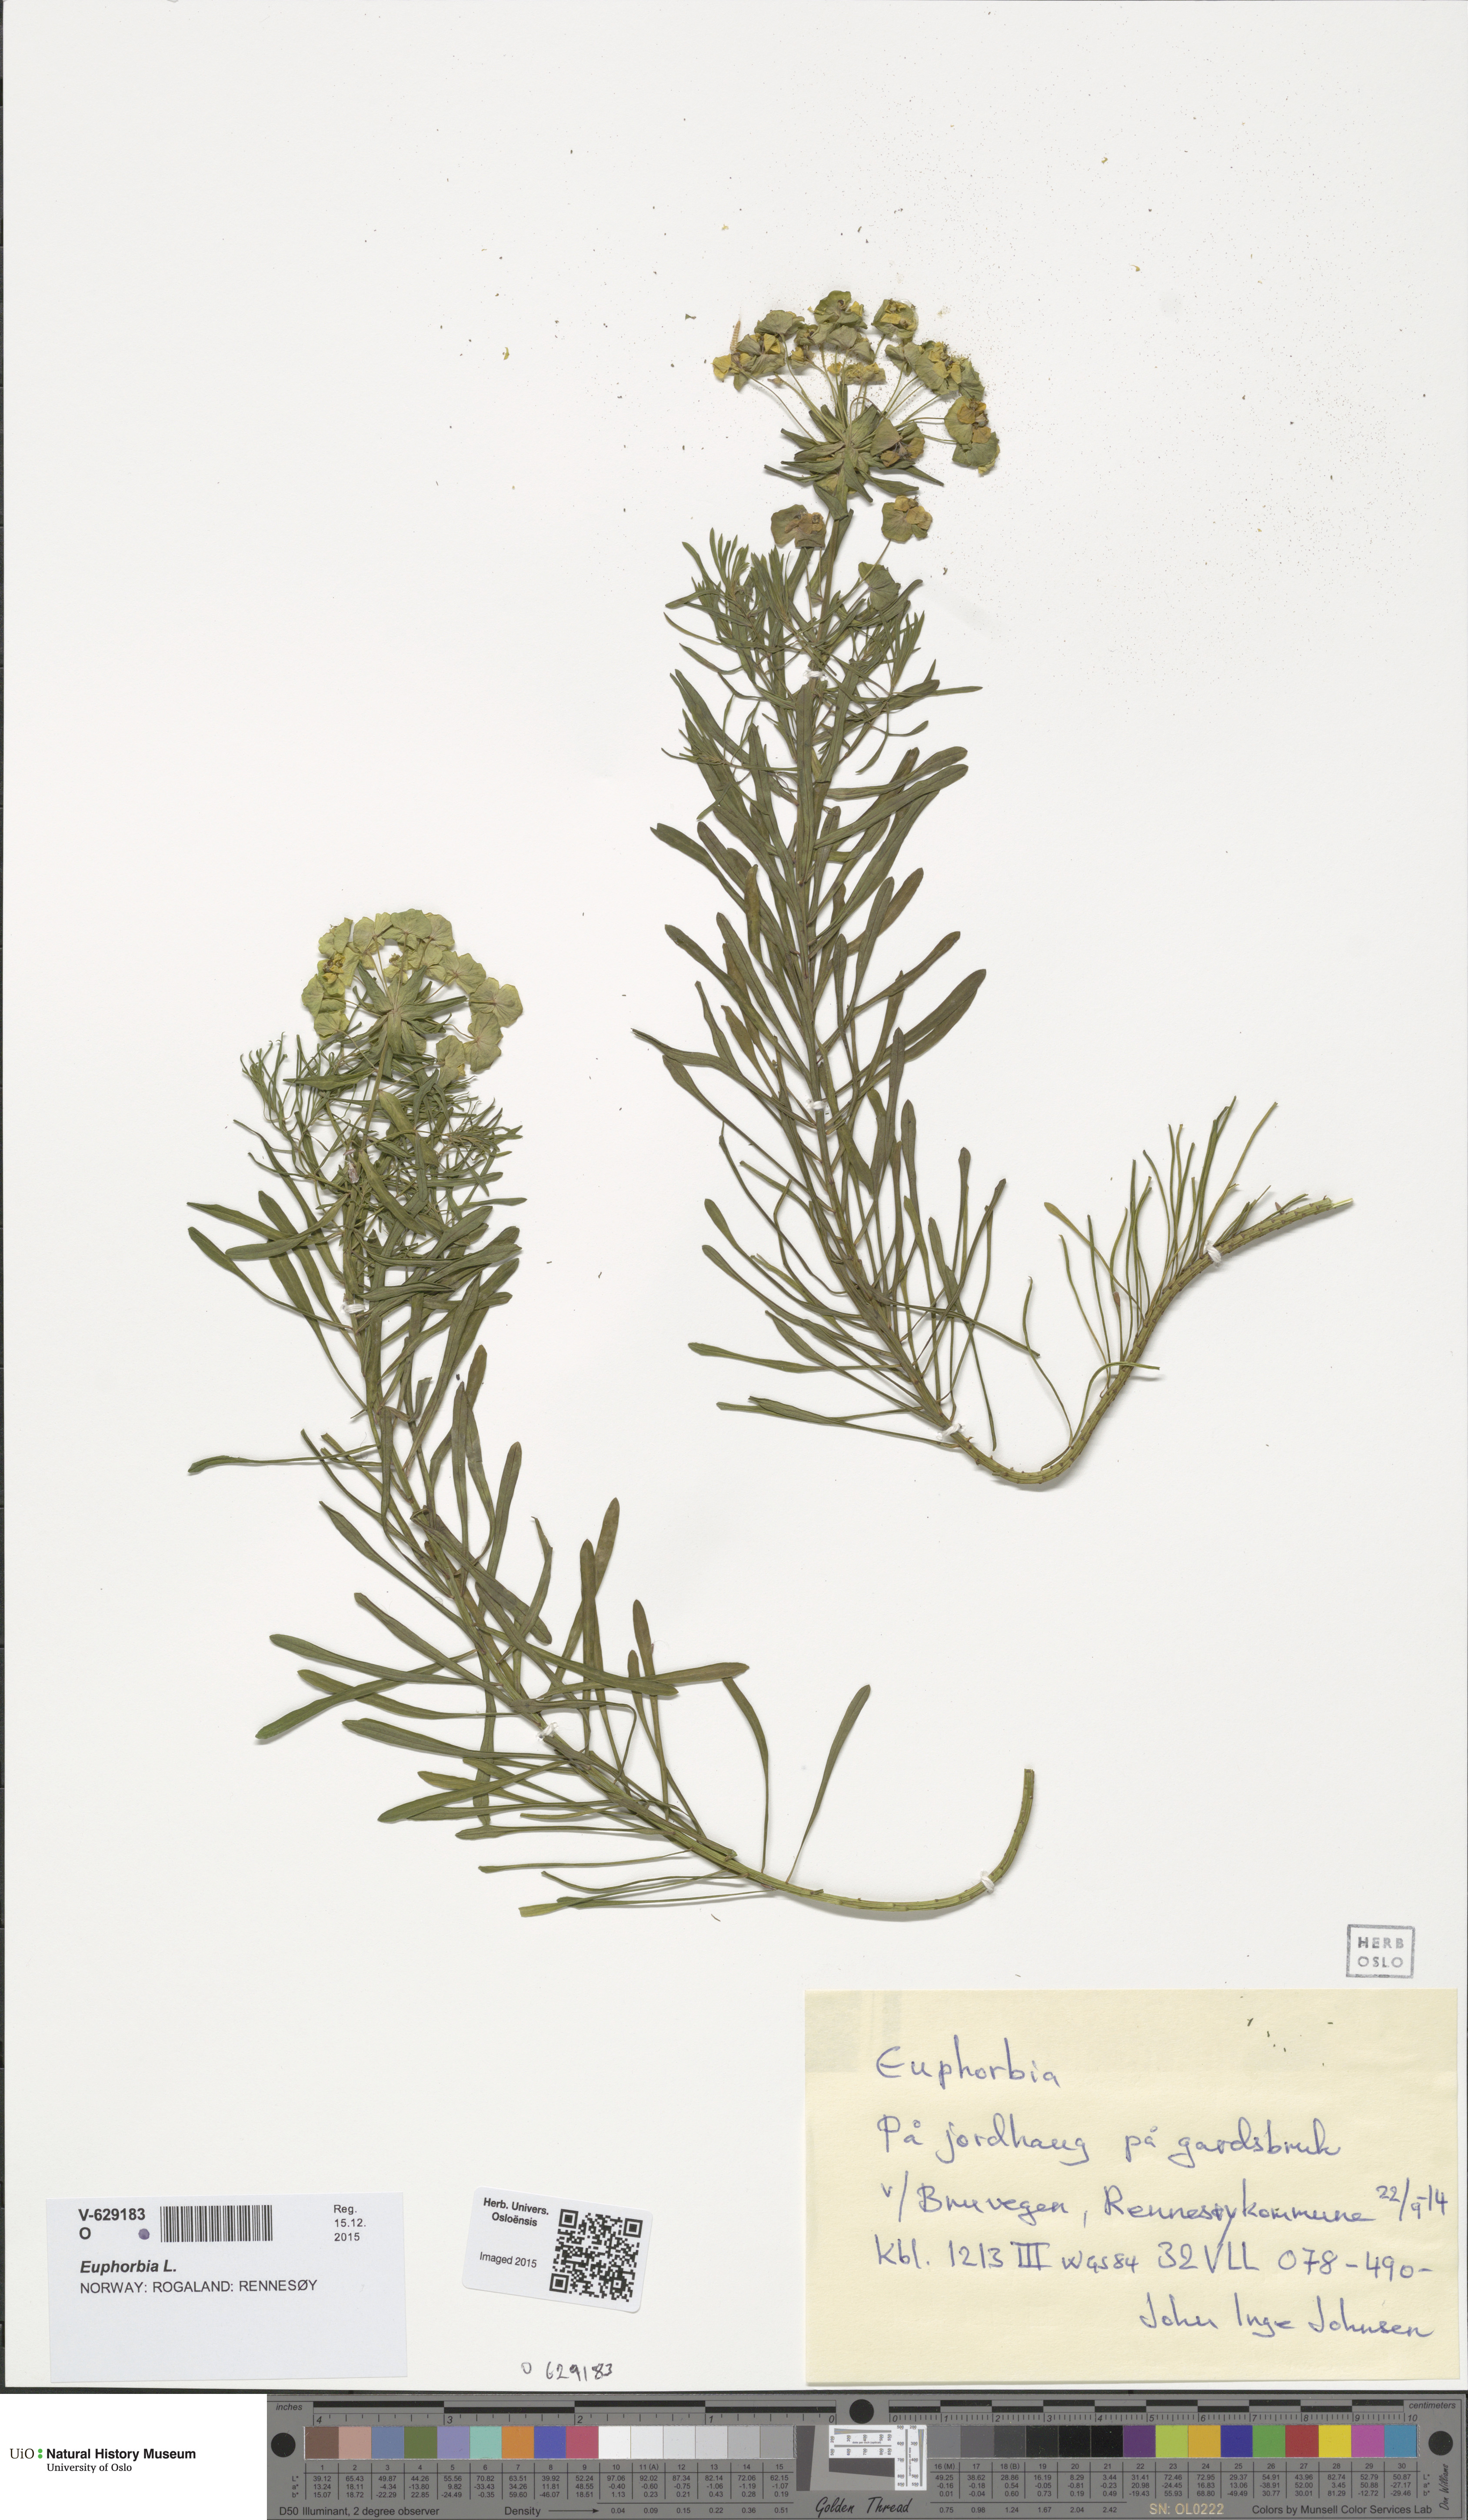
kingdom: Plantae
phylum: Tracheophyta
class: Magnoliopsida
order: Malpighiales
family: Euphorbiaceae
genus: Euphorbia
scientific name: Euphorbia
